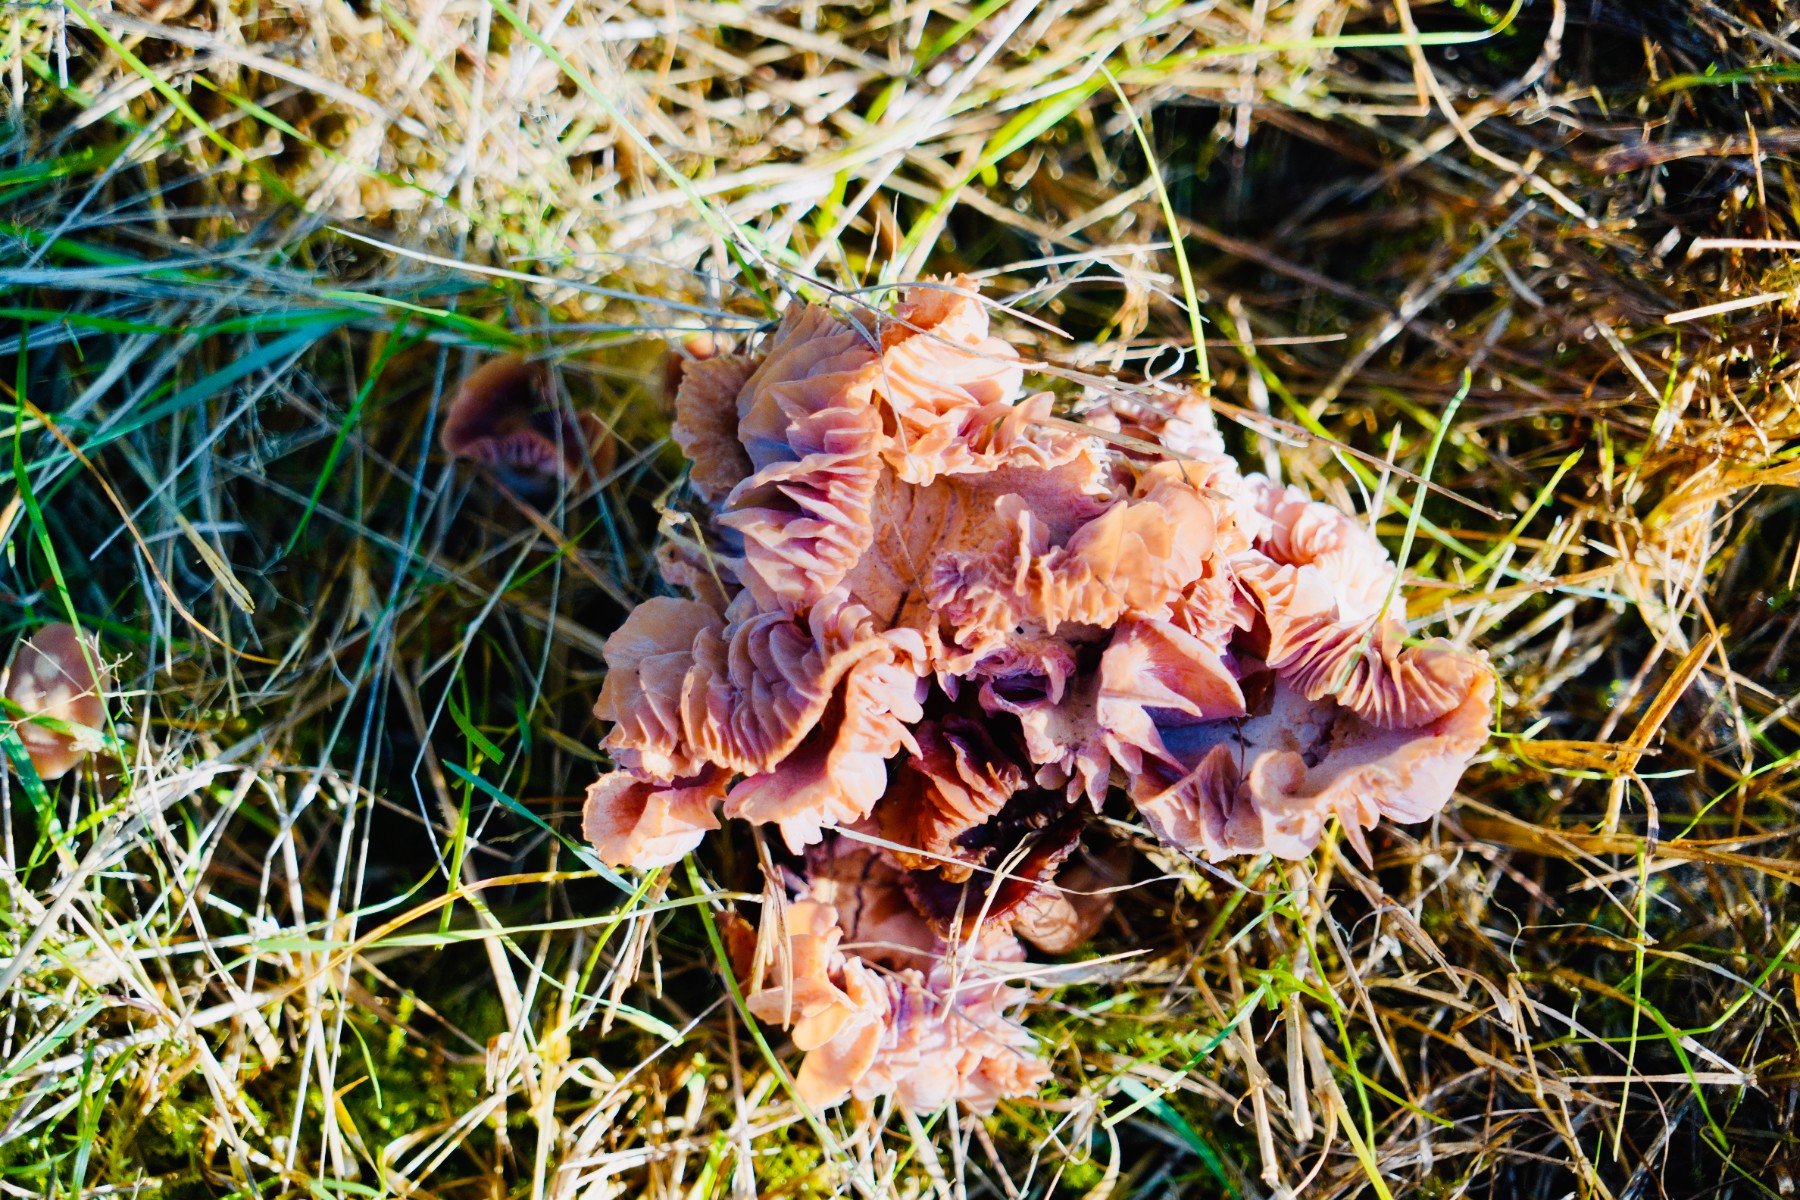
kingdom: Fungi
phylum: Basidiomycota
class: Agaricomycetes
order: Agaricales
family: Hydnangiaceae
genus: Laccaria
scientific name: Laccaria
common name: ametysthat
